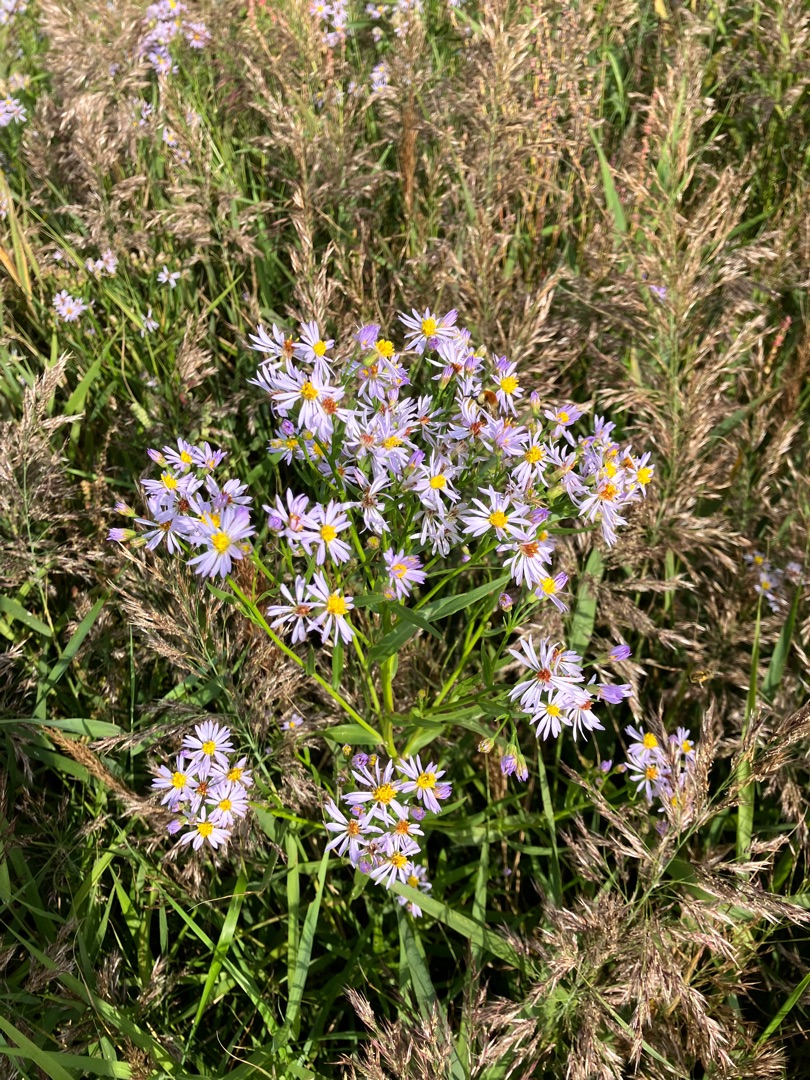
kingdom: Plantae
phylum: Tracheophyta
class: Magnoliopsida
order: Asterales
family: Asteraceae
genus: Tripolium
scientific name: Tripolium pannonicum
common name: Strandasters
